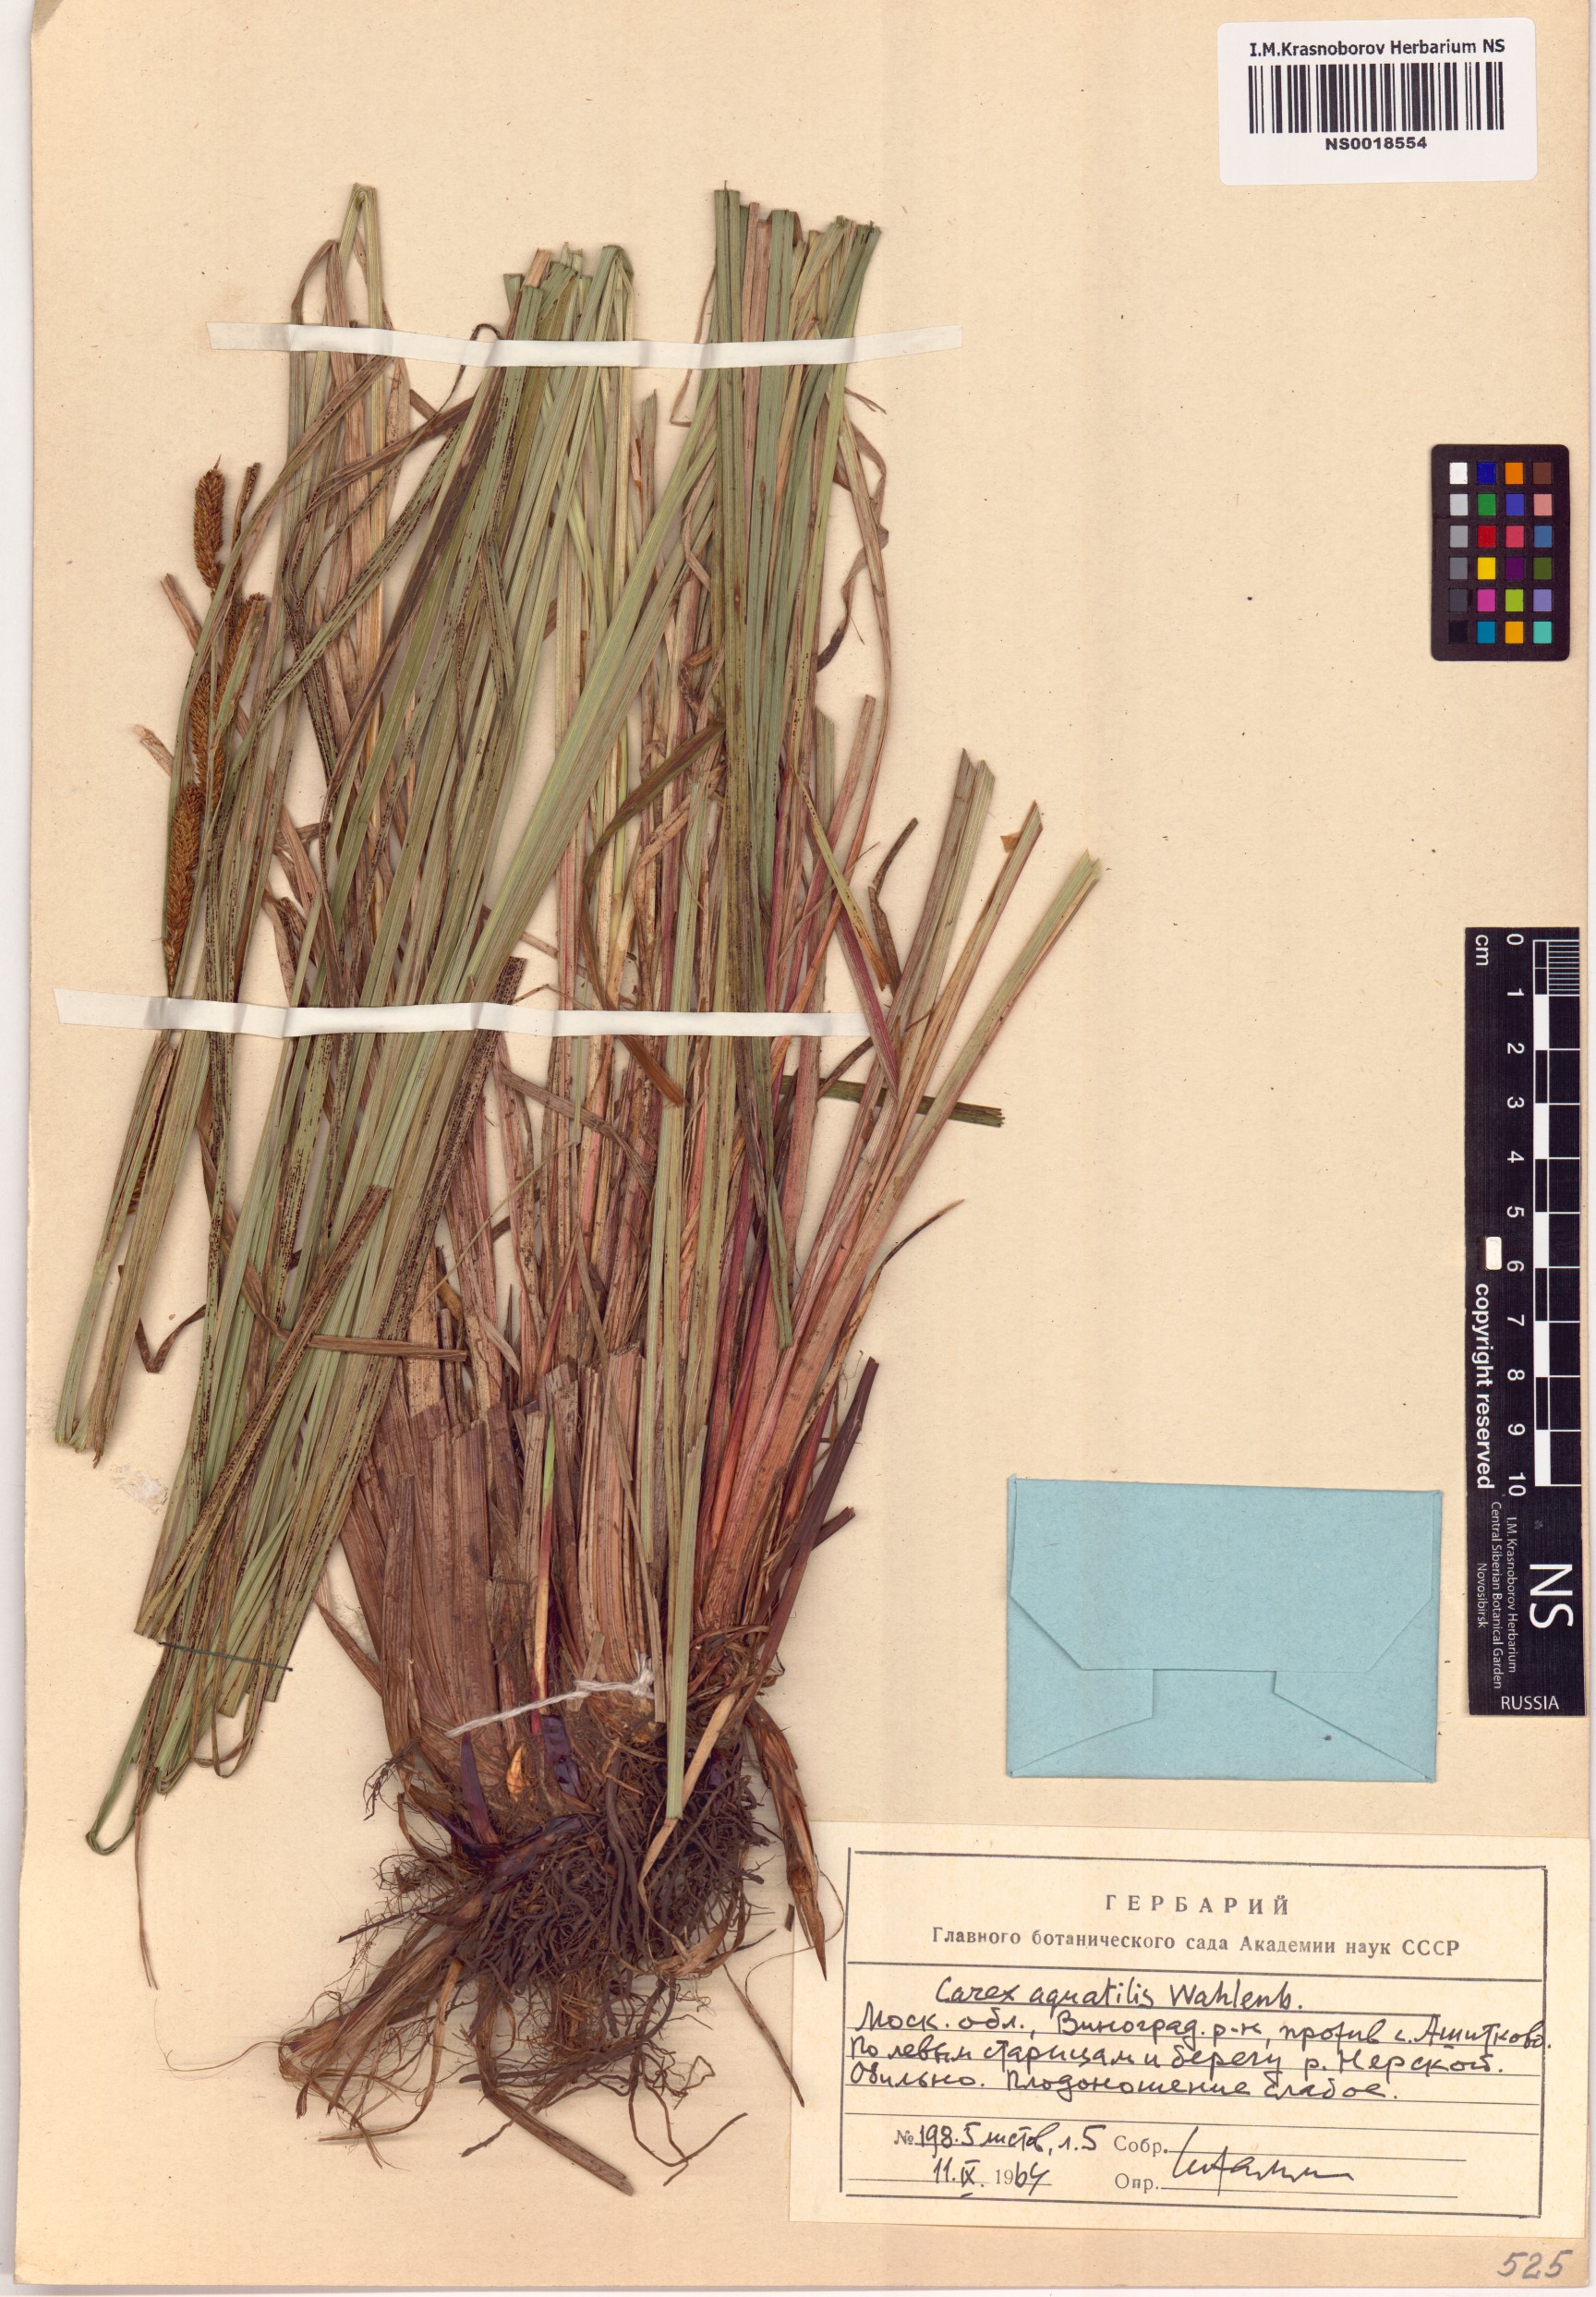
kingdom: Plantae
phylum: Tracheophyta
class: Liliopsida
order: Poales
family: Cyperaceae
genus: Carex
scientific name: Carex aquatilis
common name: Water sedge
